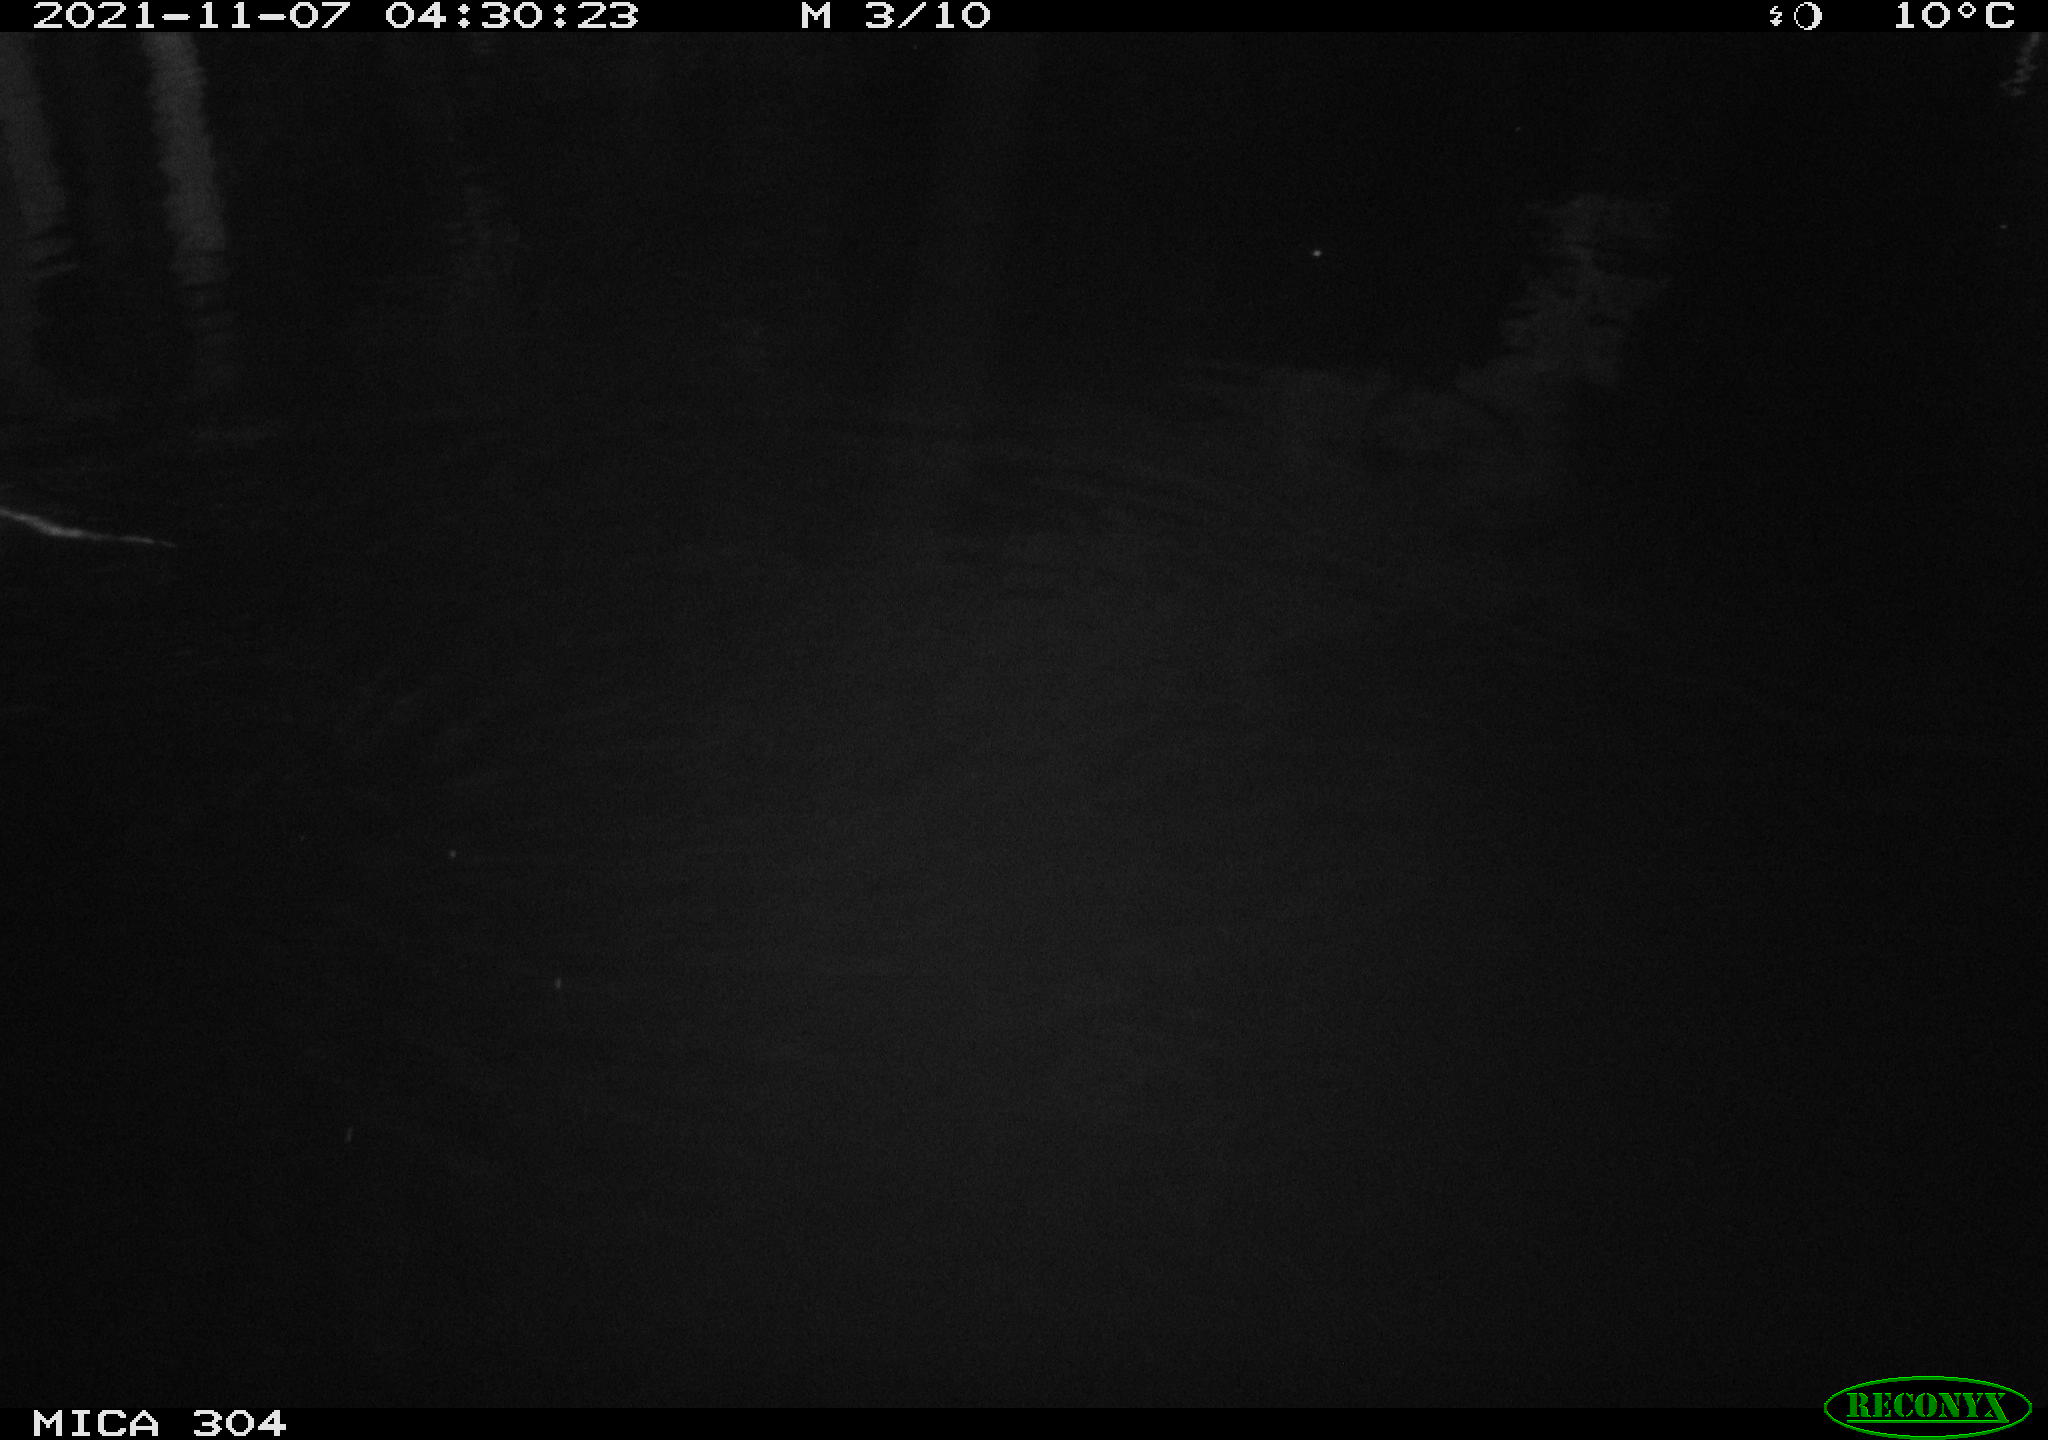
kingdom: Animalia
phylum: Chordata
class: Mammalia
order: Rodentia
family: Muridae
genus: Rattus
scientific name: Rattus norvegicus
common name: Brown rat
